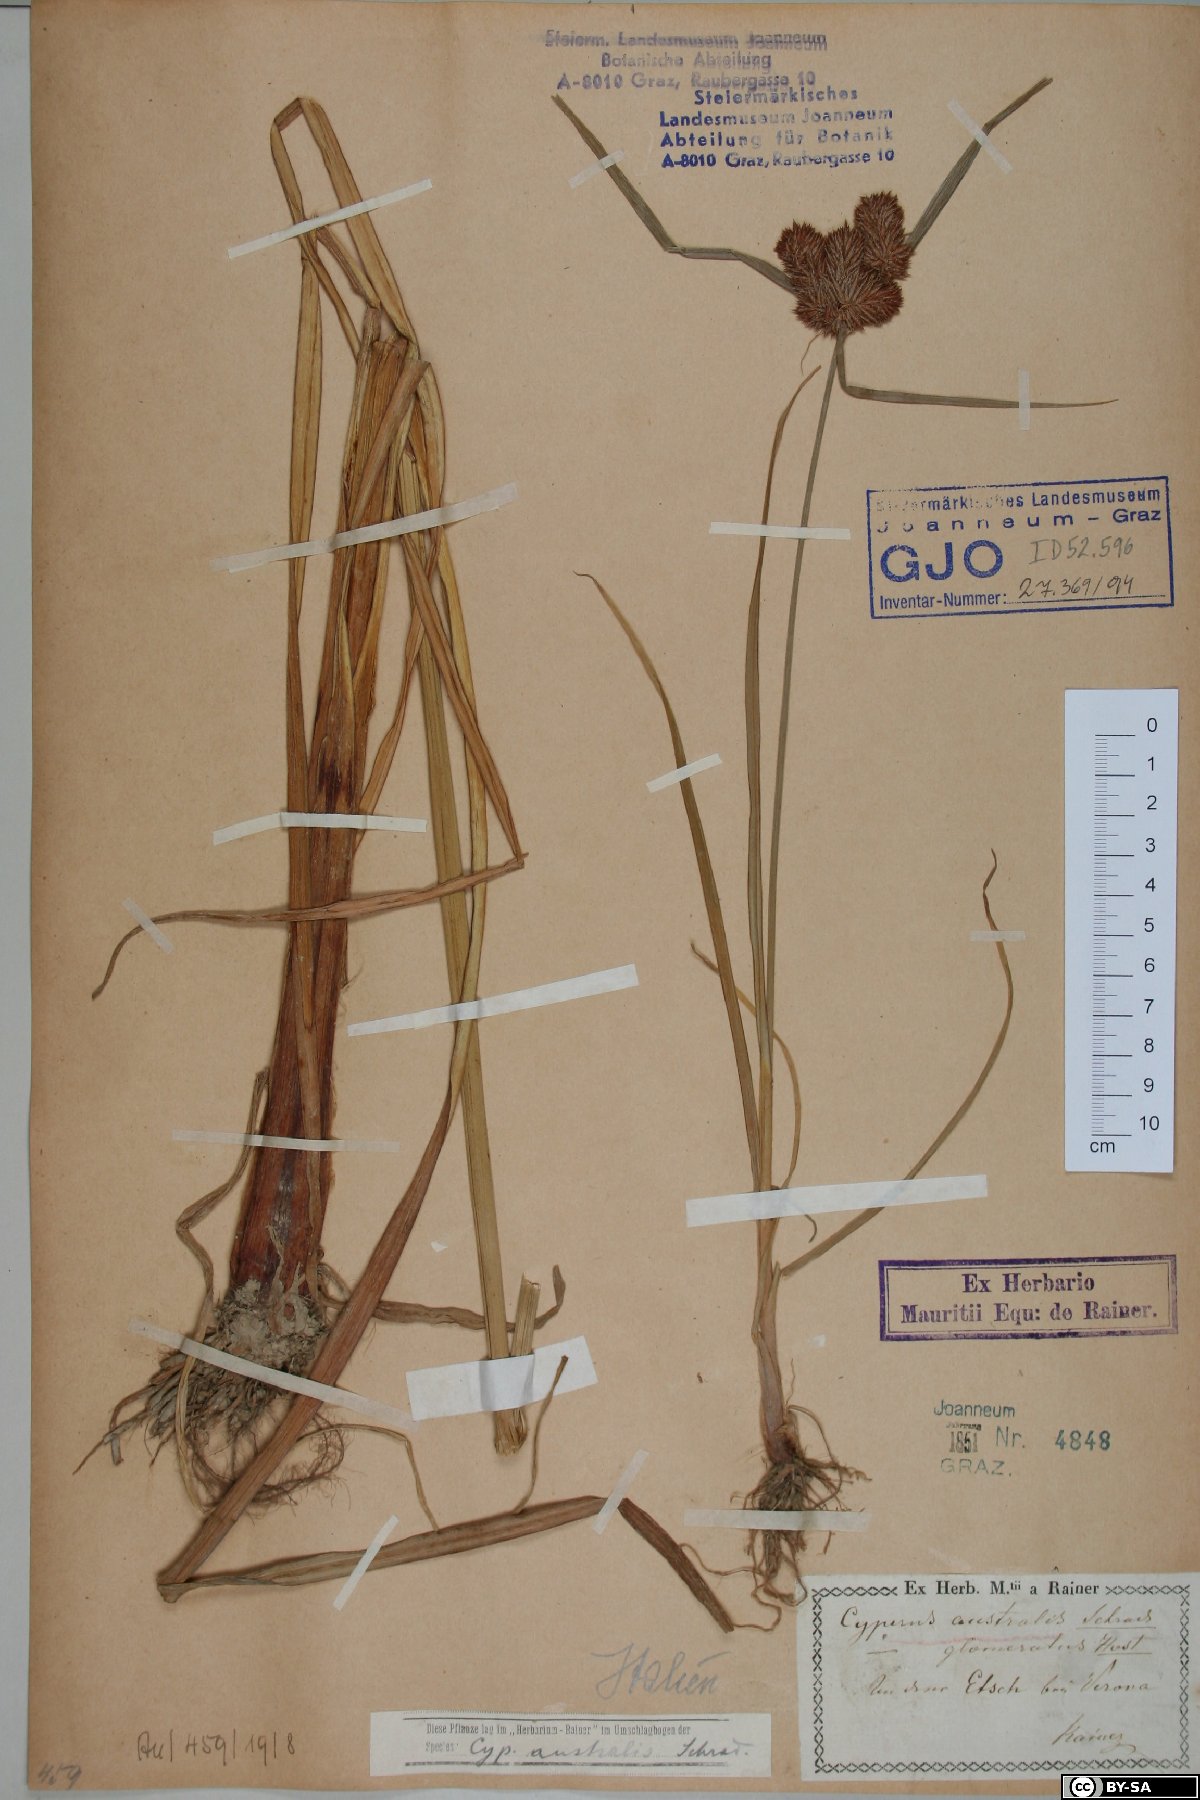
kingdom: Plantae
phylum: Tracheophyta
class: Liliopsida
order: Poales
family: Cyperaceae
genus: Cyperus
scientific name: Cyperus glomeratus
